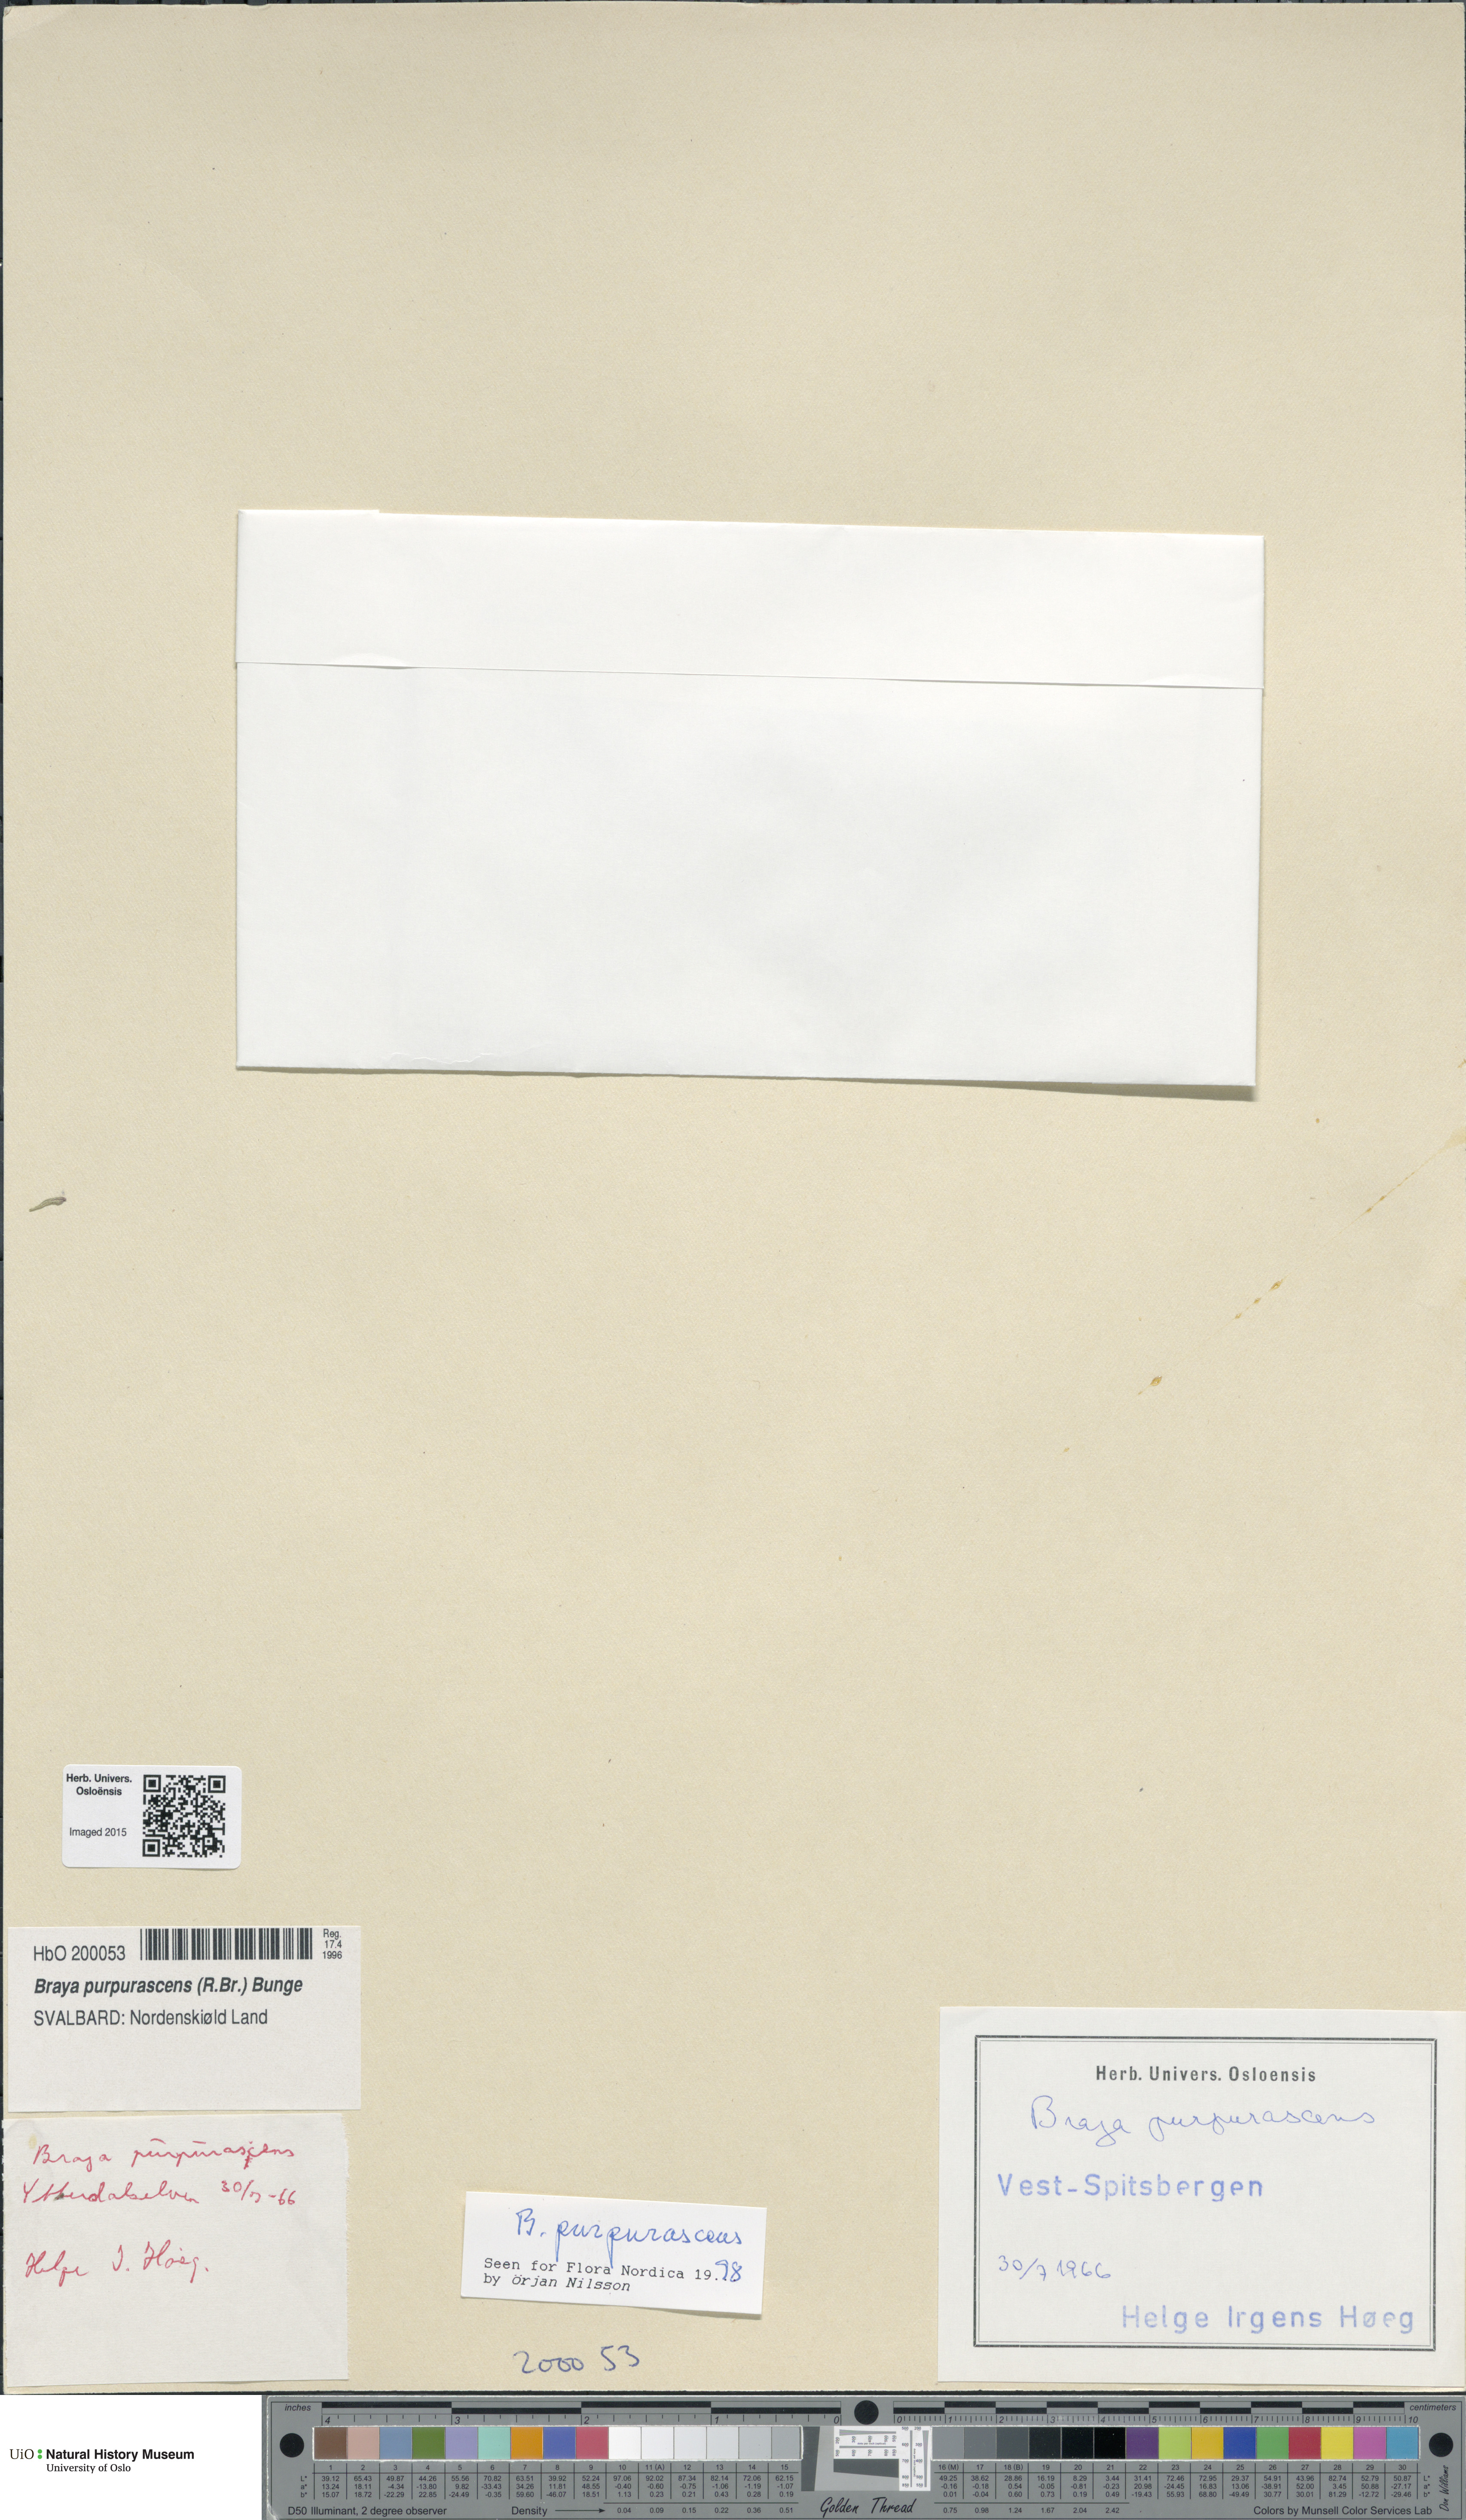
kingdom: Plantae
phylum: Tracheophyta
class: Magnoliopsida
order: Brassicales
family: Brassicaceae
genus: Braya
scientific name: Braya purpurascens
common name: Alpine braya
